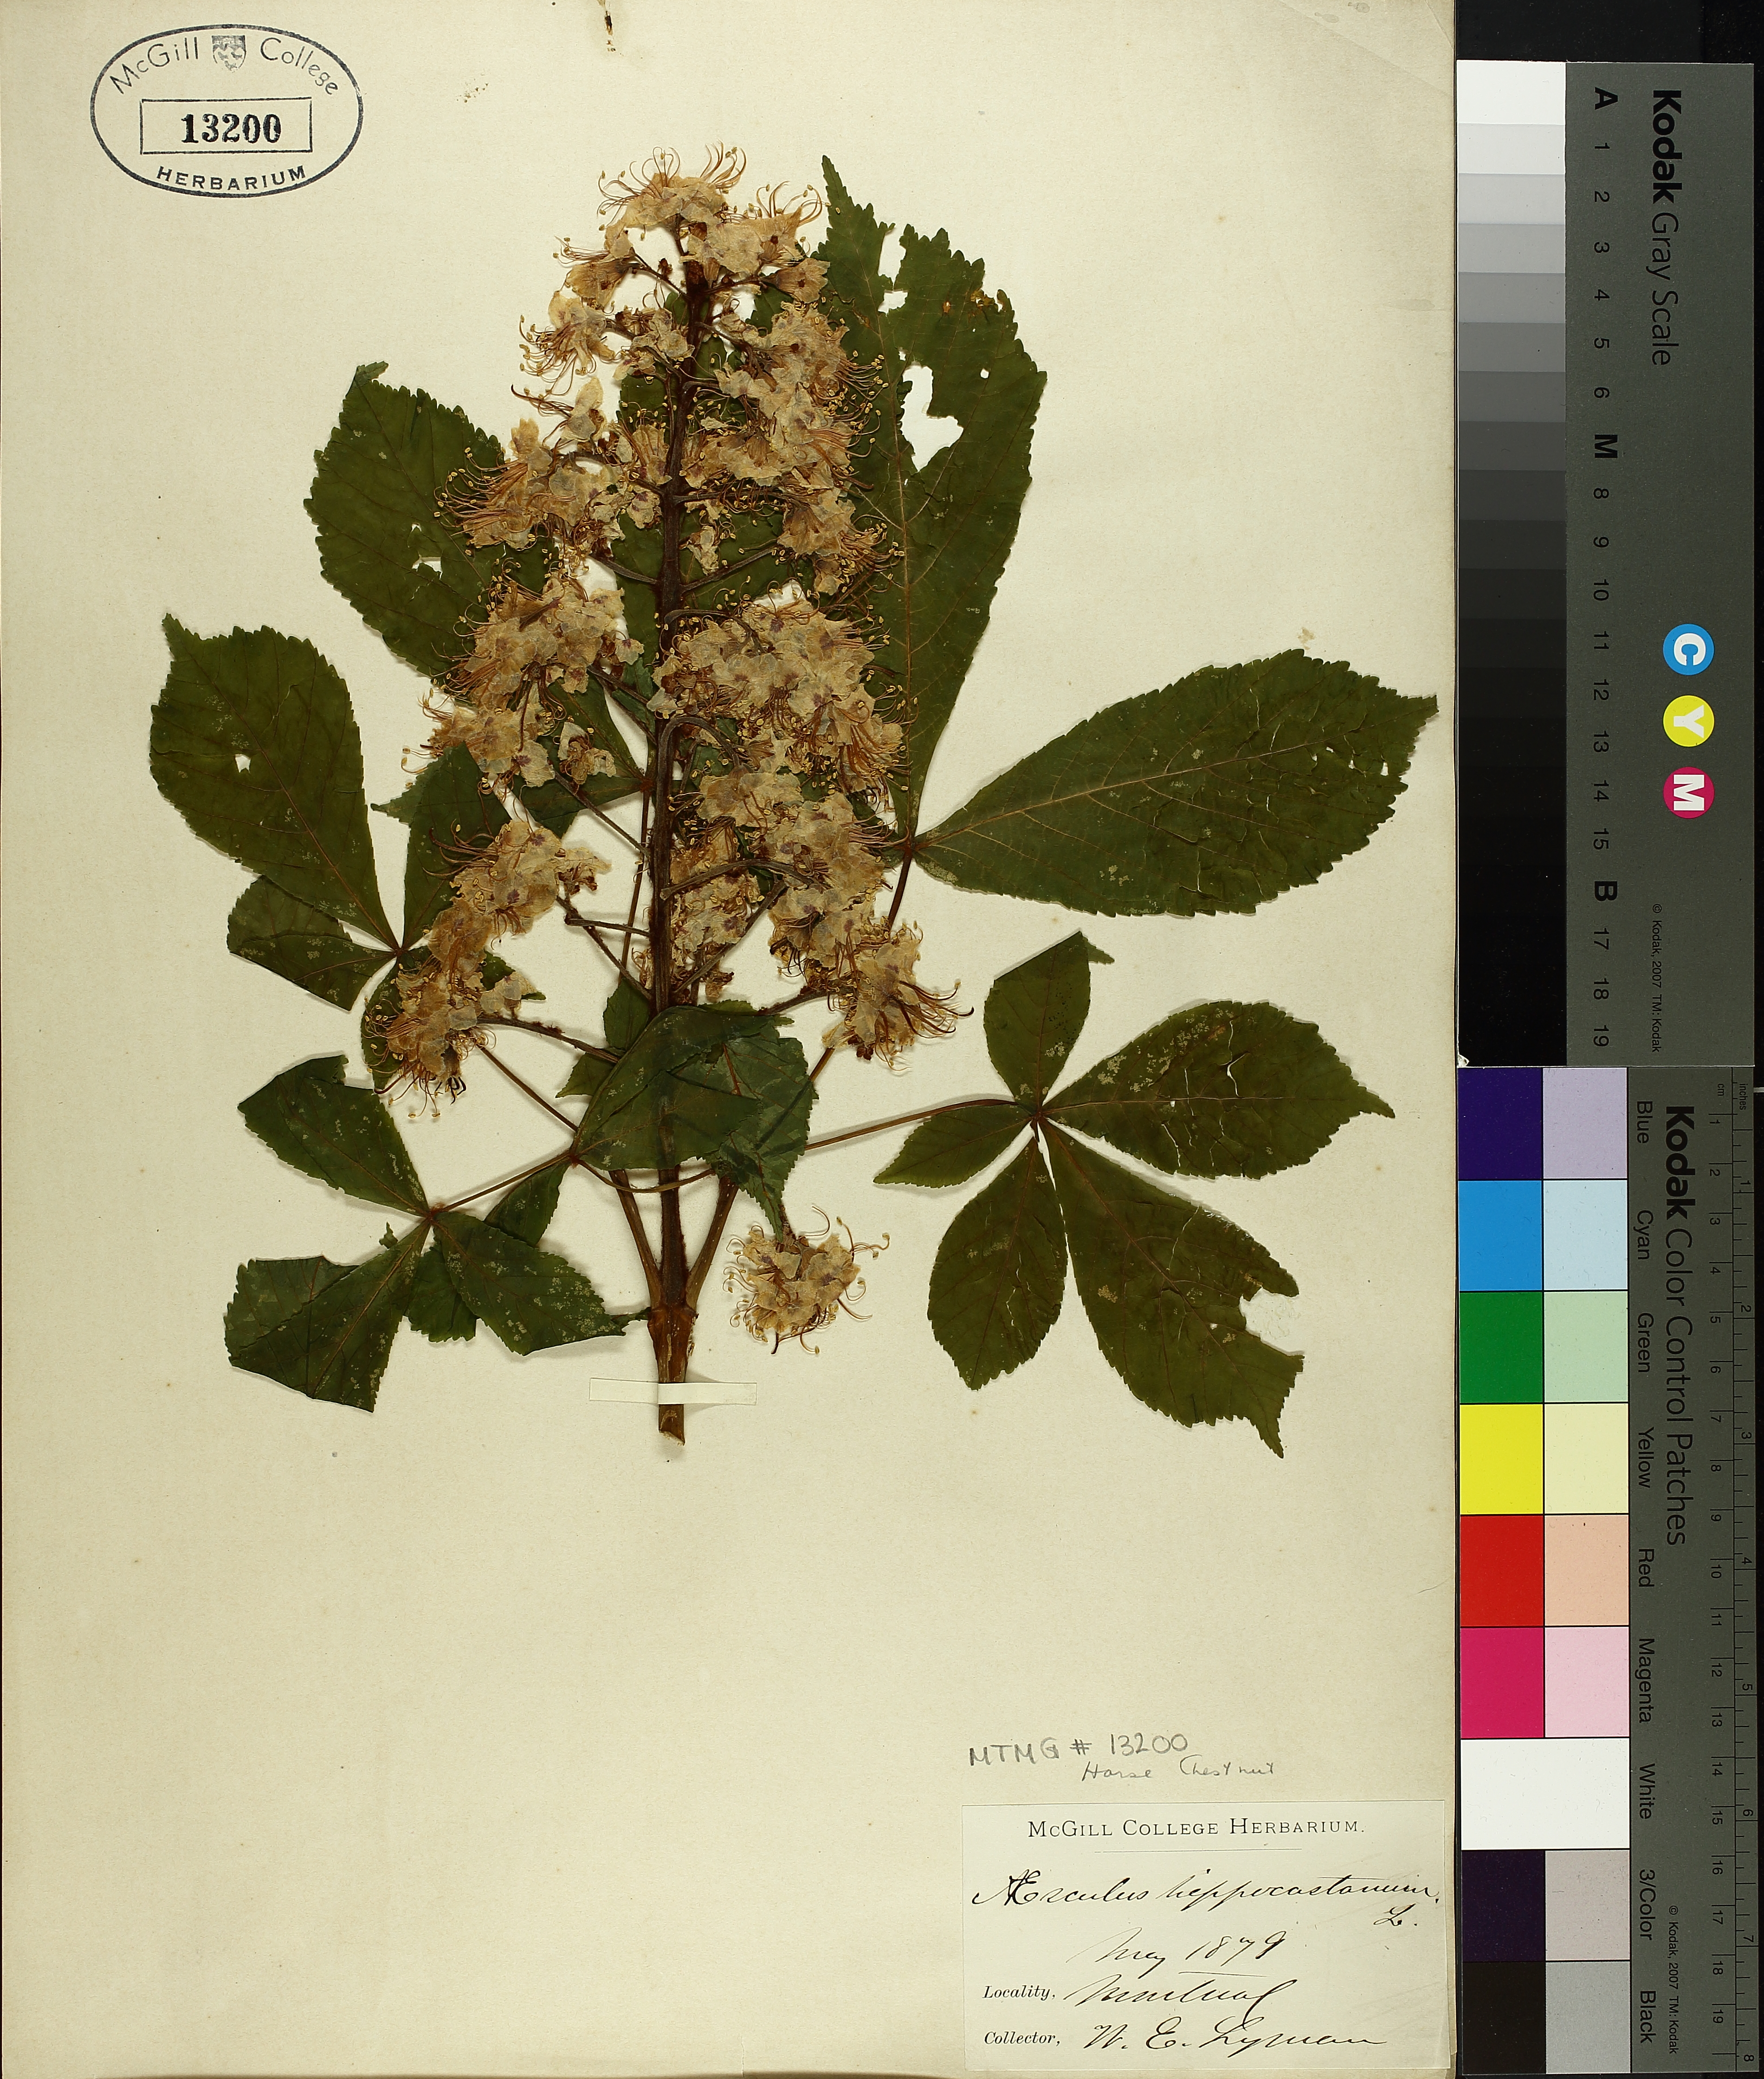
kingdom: Plantae
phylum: Tracheophyta
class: Magnoliopsida
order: Sapindales
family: Sapindaceae
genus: Aesculus
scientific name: Aesculus hippocastanum
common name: Horse-chestnut
